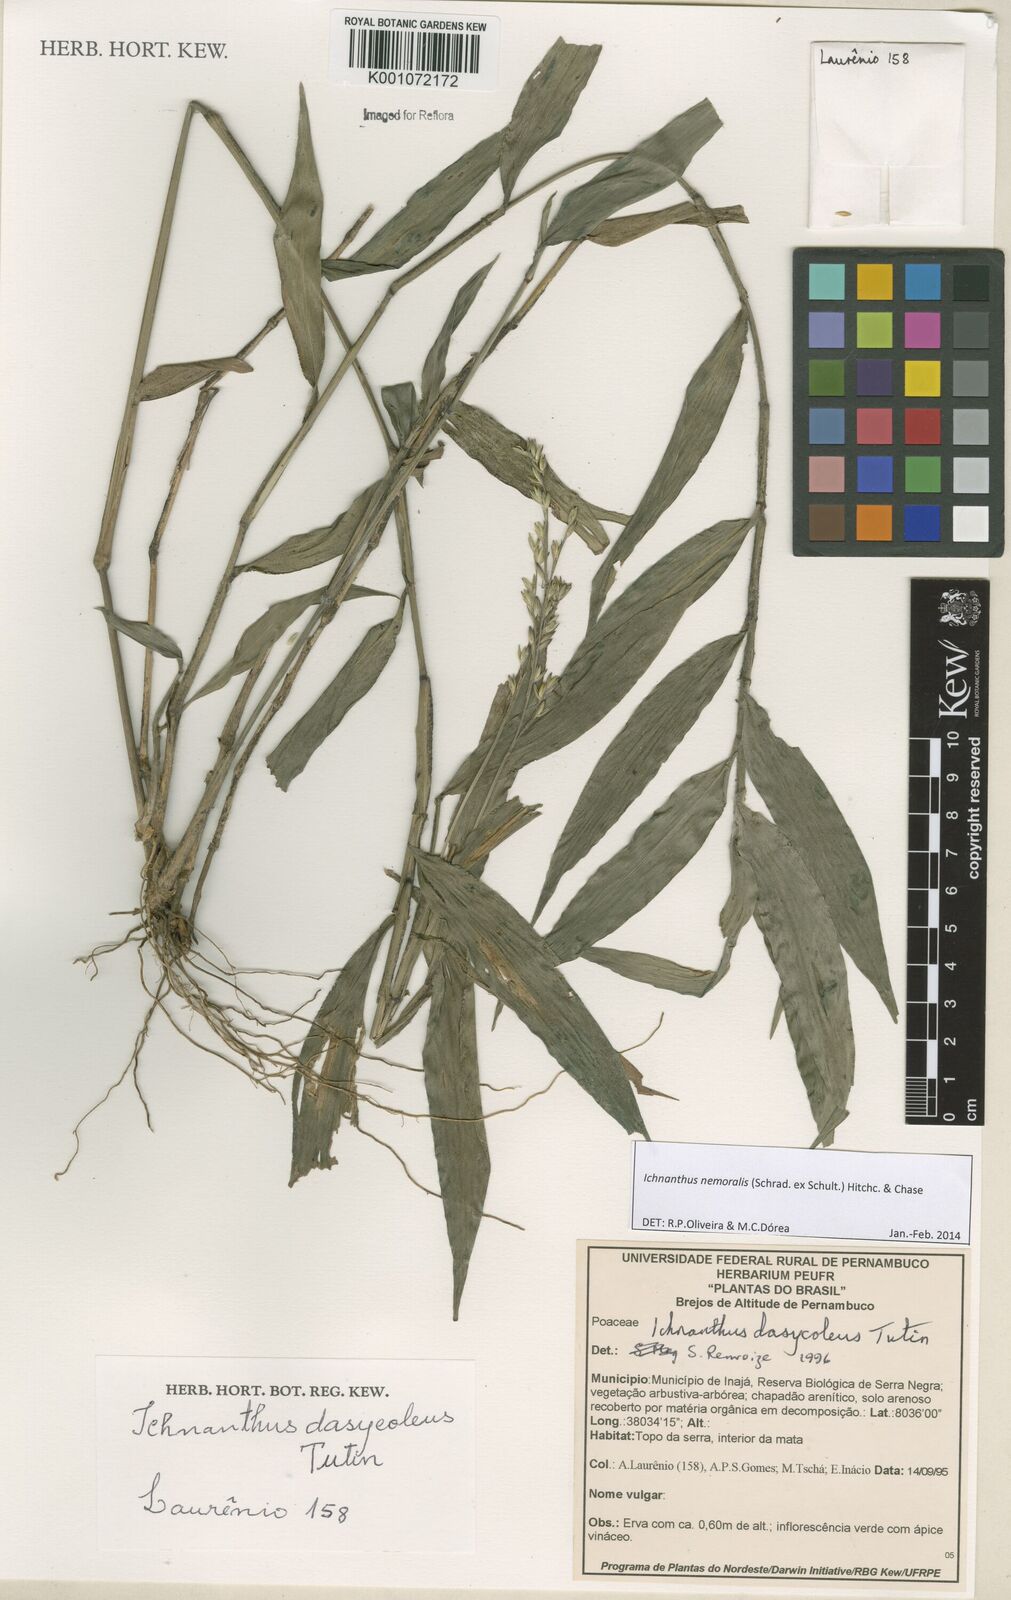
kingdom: Plantae
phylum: Tracheophyta
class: Liliopsida
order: Poales
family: Poaceae
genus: Ichnanthus
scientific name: Ichnanthus nemoralis
